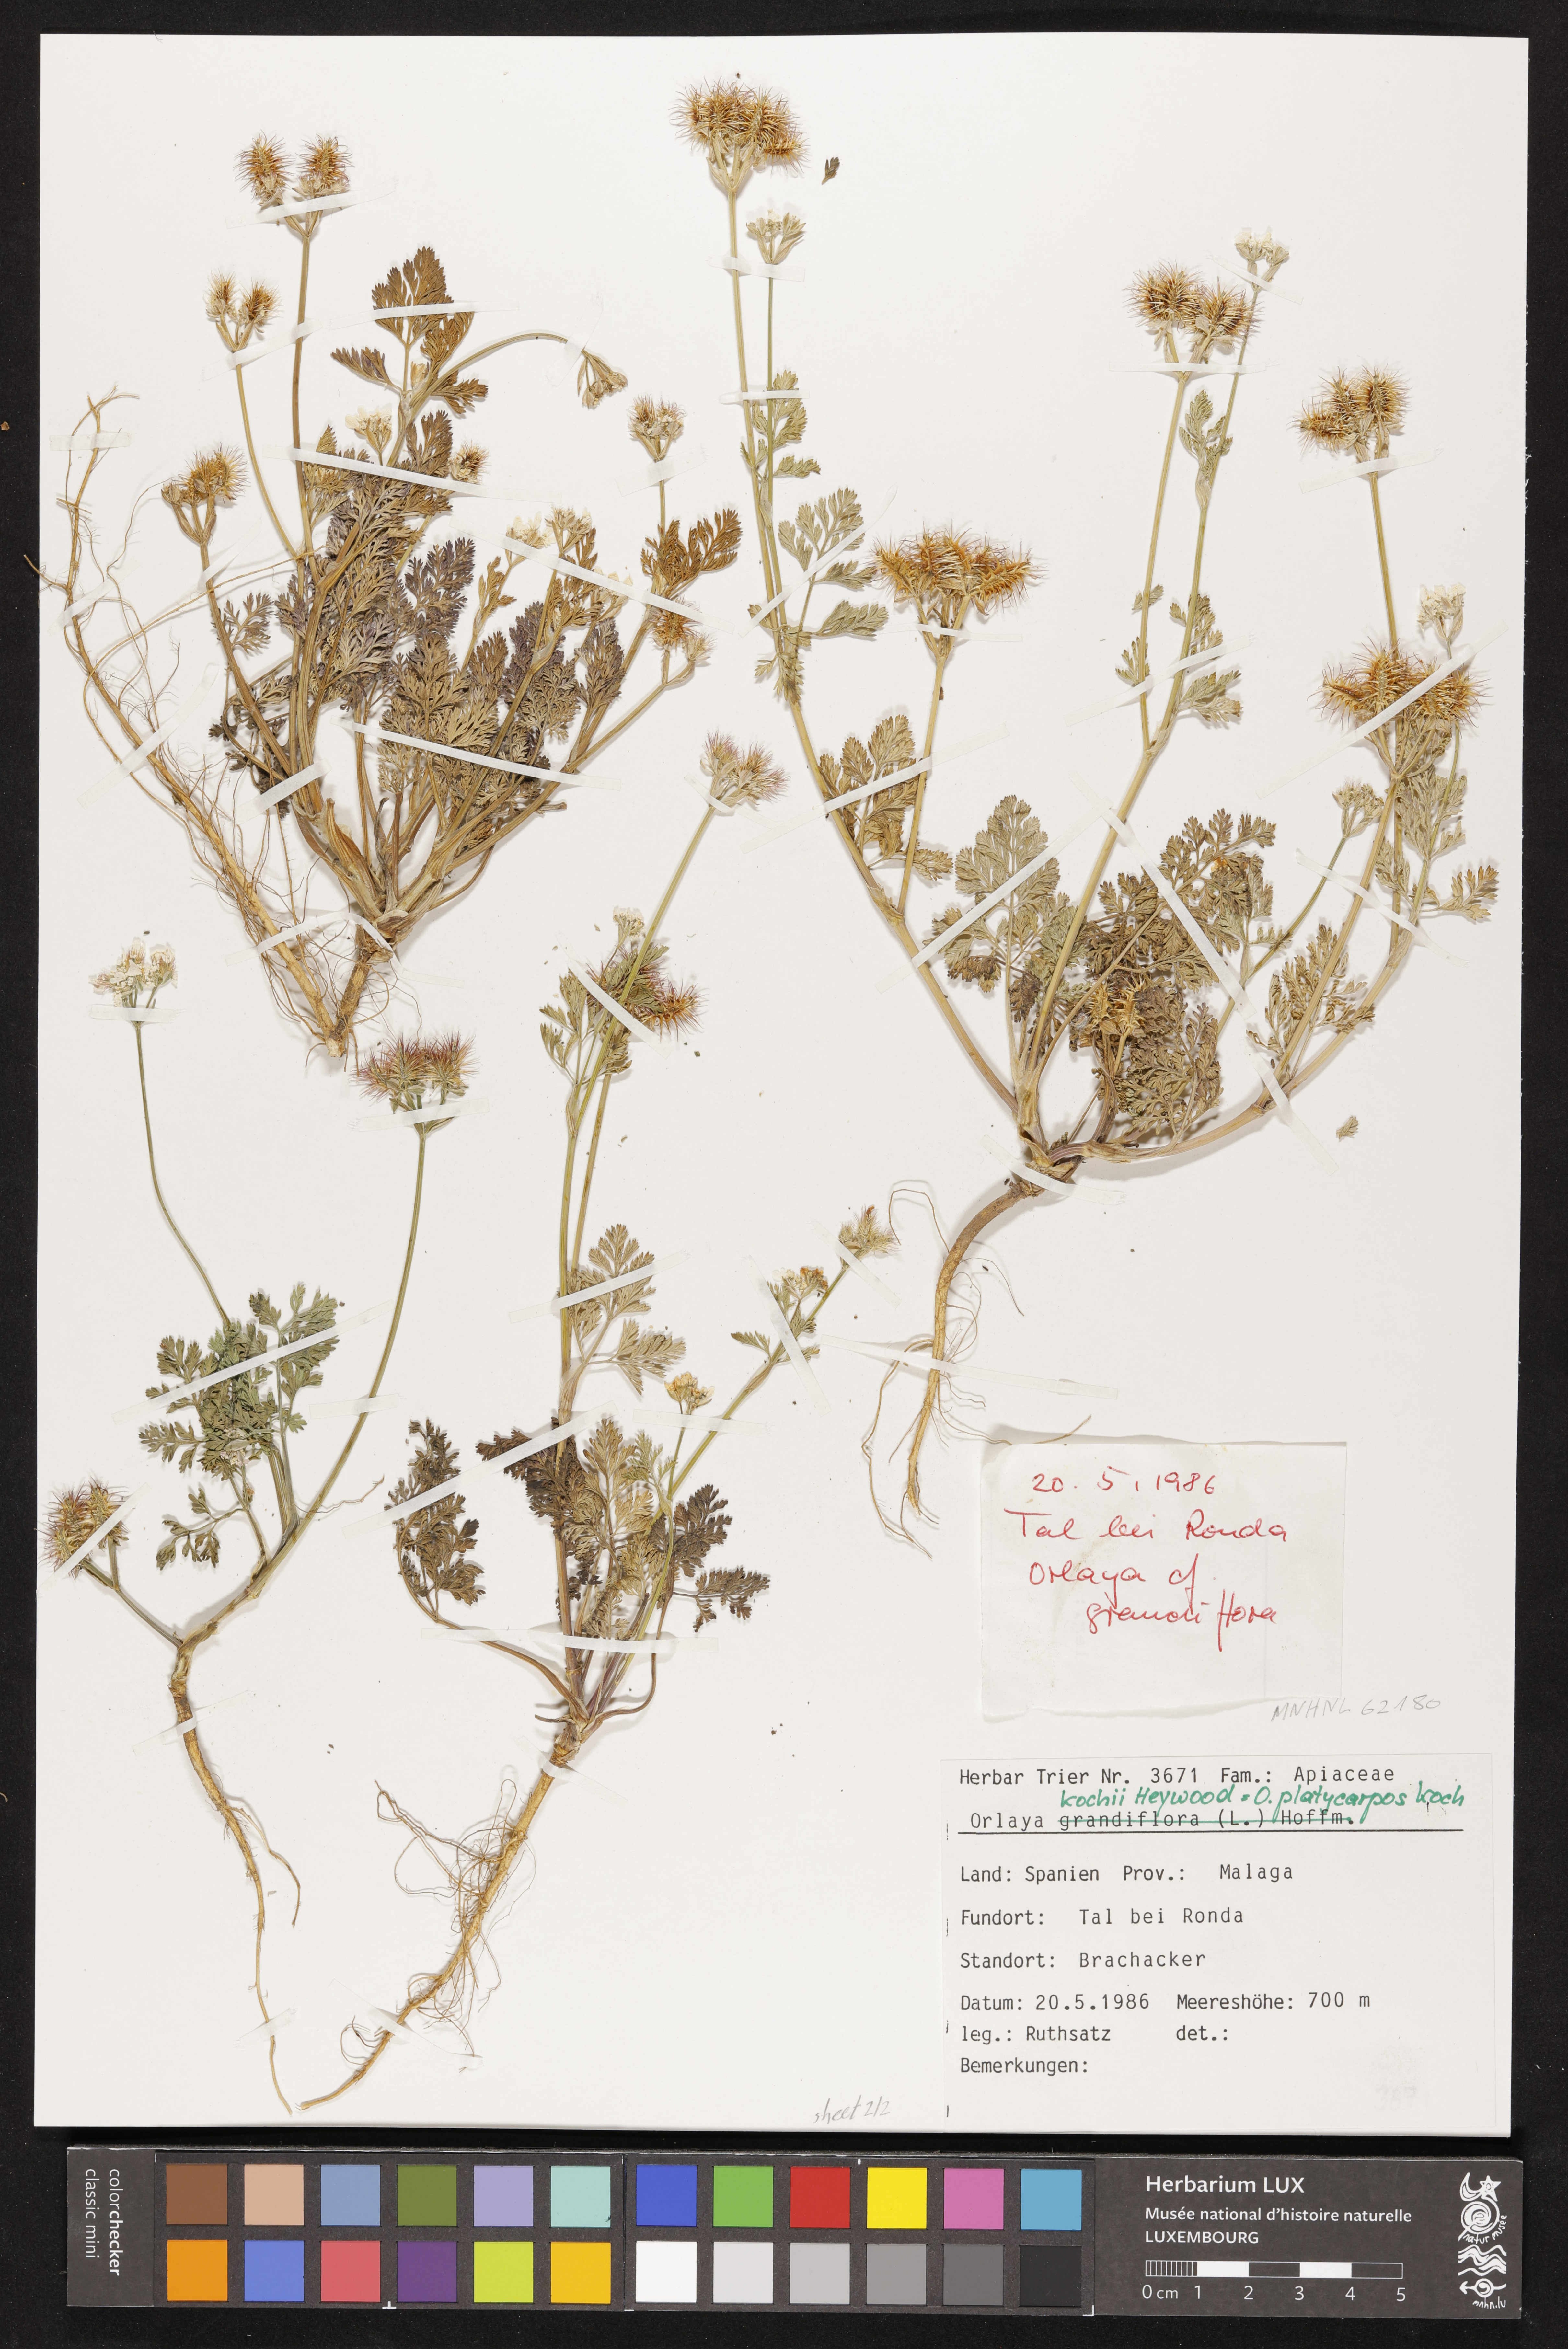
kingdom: Plantae
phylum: Tracheophyta
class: Magnoliopsida
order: Apiales
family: Apiaceae
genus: Orlaya
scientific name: Orlaya daucoides
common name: Flat-fruit orlaya
